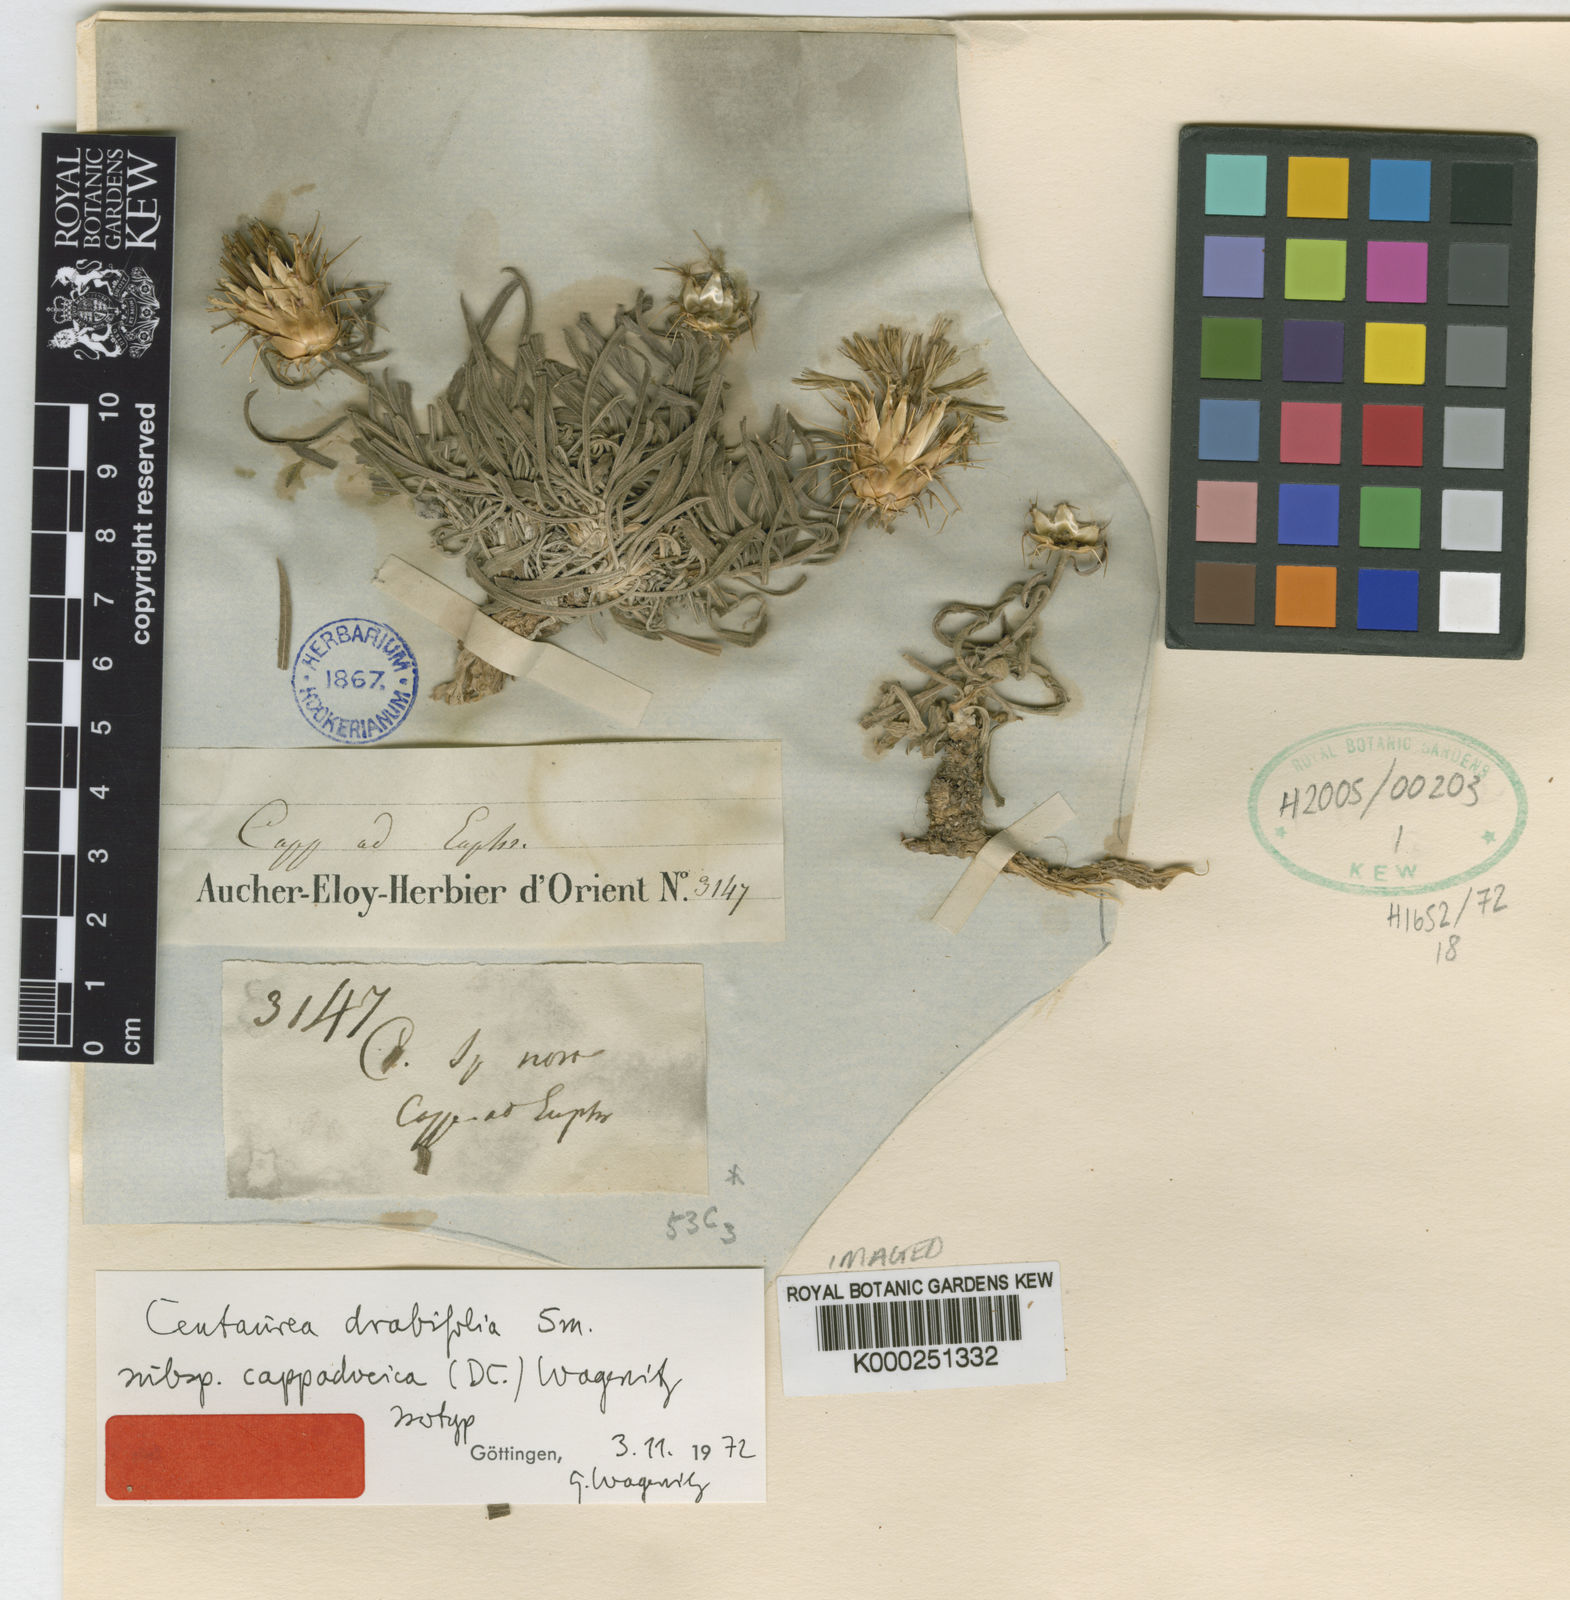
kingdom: Plantae
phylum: Tracheophyta
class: Magnoliopsida
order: Asterales
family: Asteraceae
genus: Centaurea
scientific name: Centaurea drabifolia
